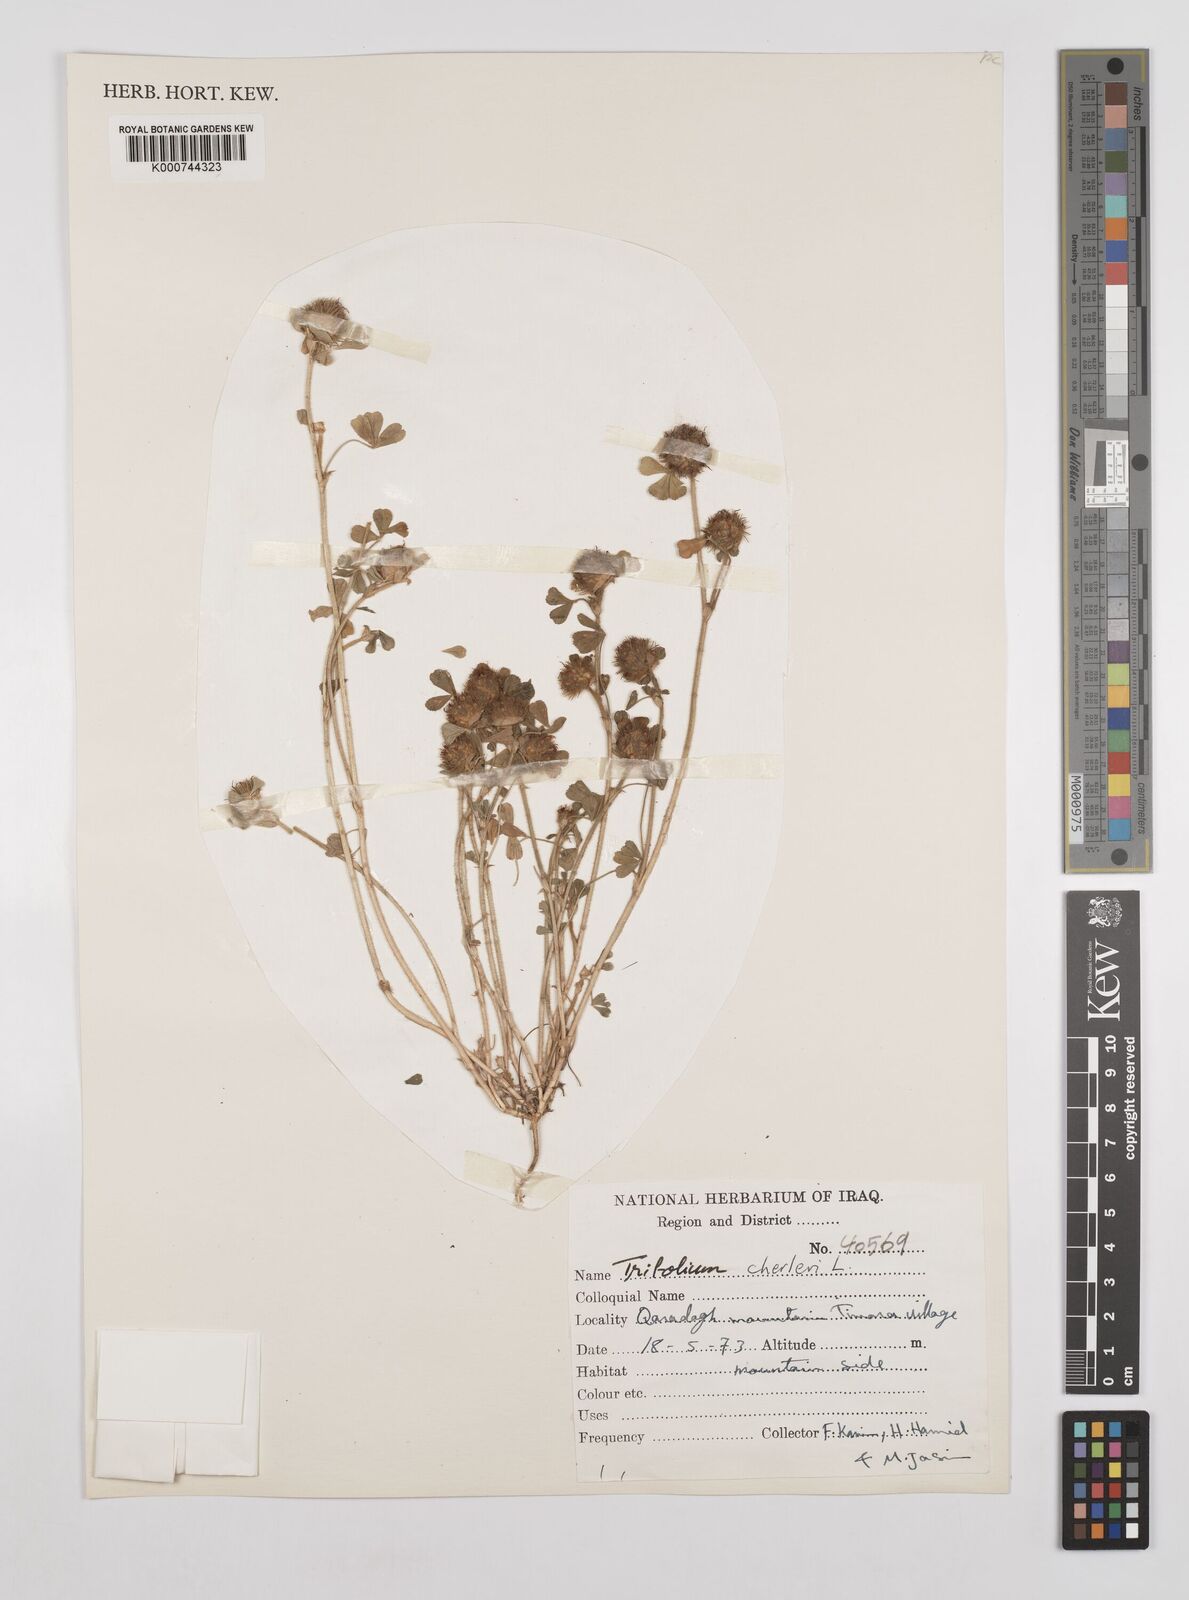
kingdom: Plantae
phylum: Tracheophyta
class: Magnoliopsida
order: Fabales
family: Fabaceae
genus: Trifolium
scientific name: Trifolium cherleri
